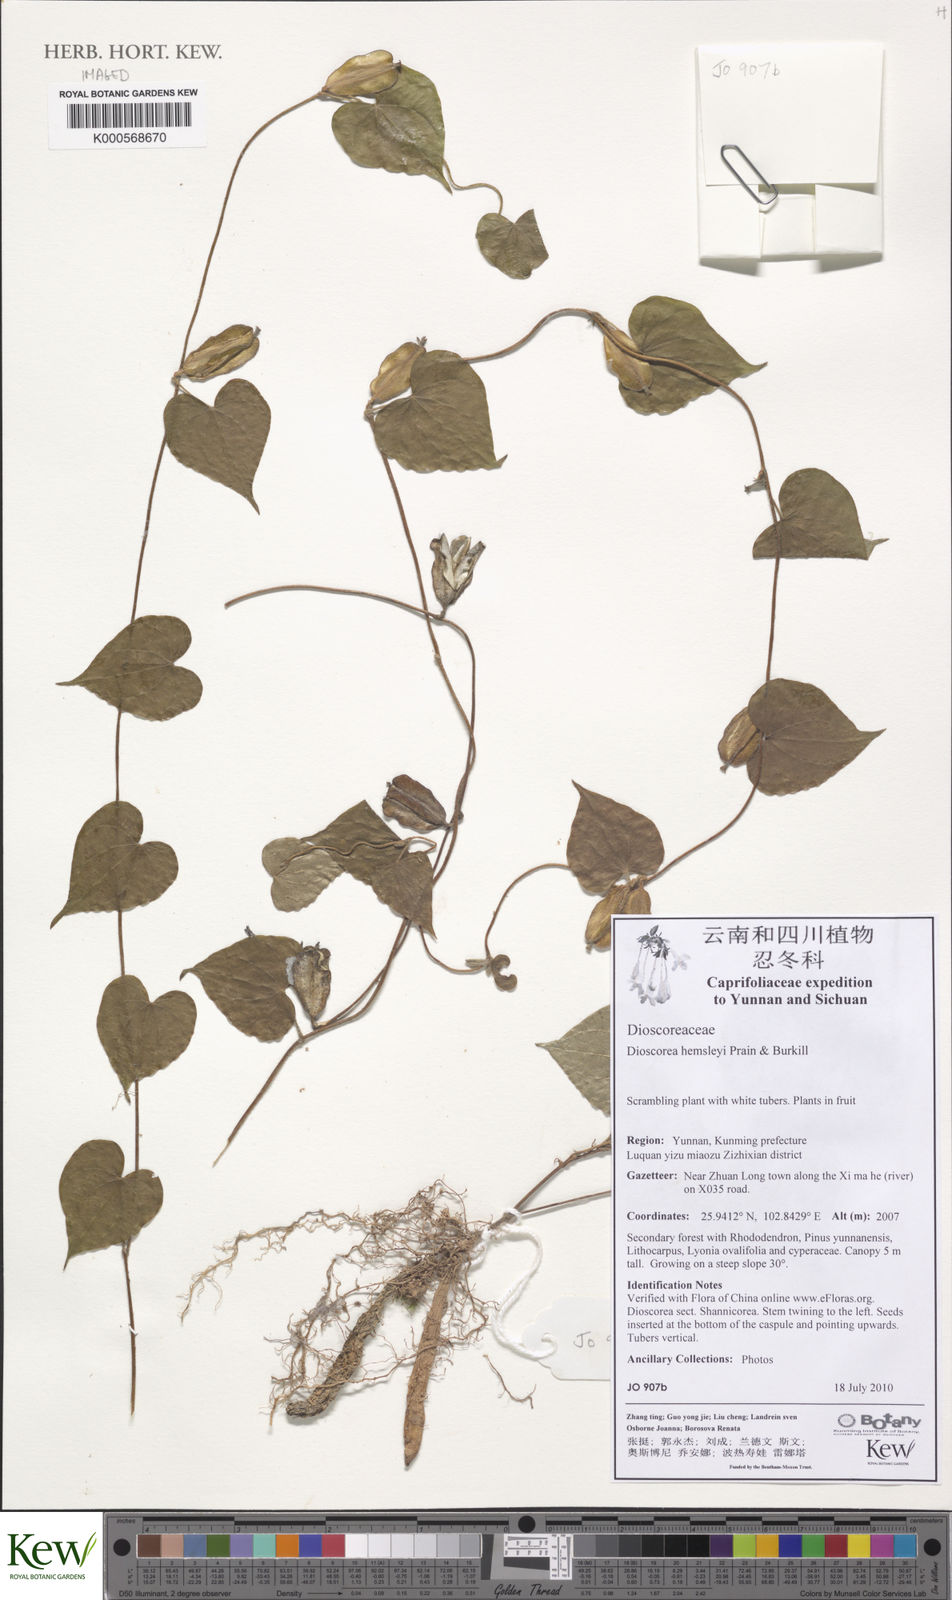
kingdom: Plantae
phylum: Tracheophyta
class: Liliopsida
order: Dioscoreales
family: Dioscoreaceae
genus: Dioscorea
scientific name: Dioscorea hemsleyi
